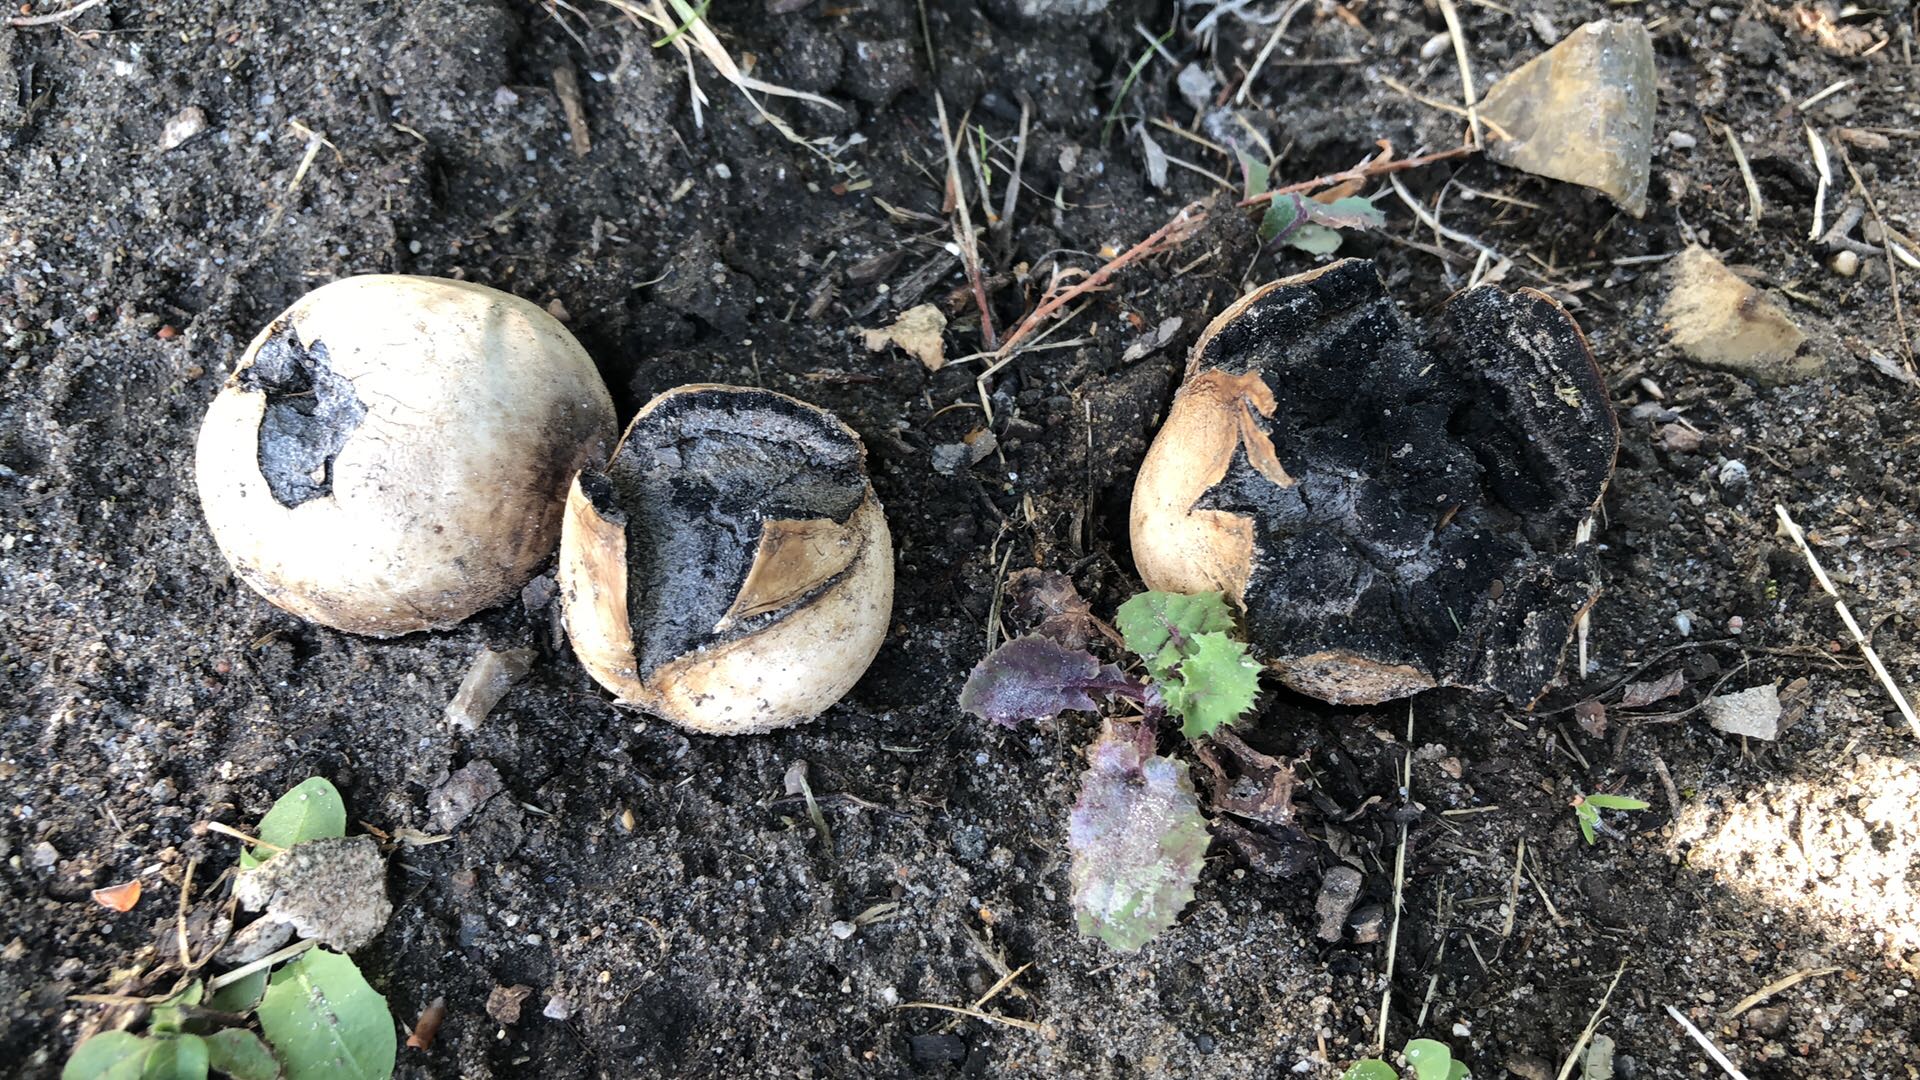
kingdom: Fungi
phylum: Basidiomycota
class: Agaricomycetes
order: Boletales
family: Sclerodermataceae
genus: Scleroderma
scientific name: Scleroderma bovista
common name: bovist-bruskbold
